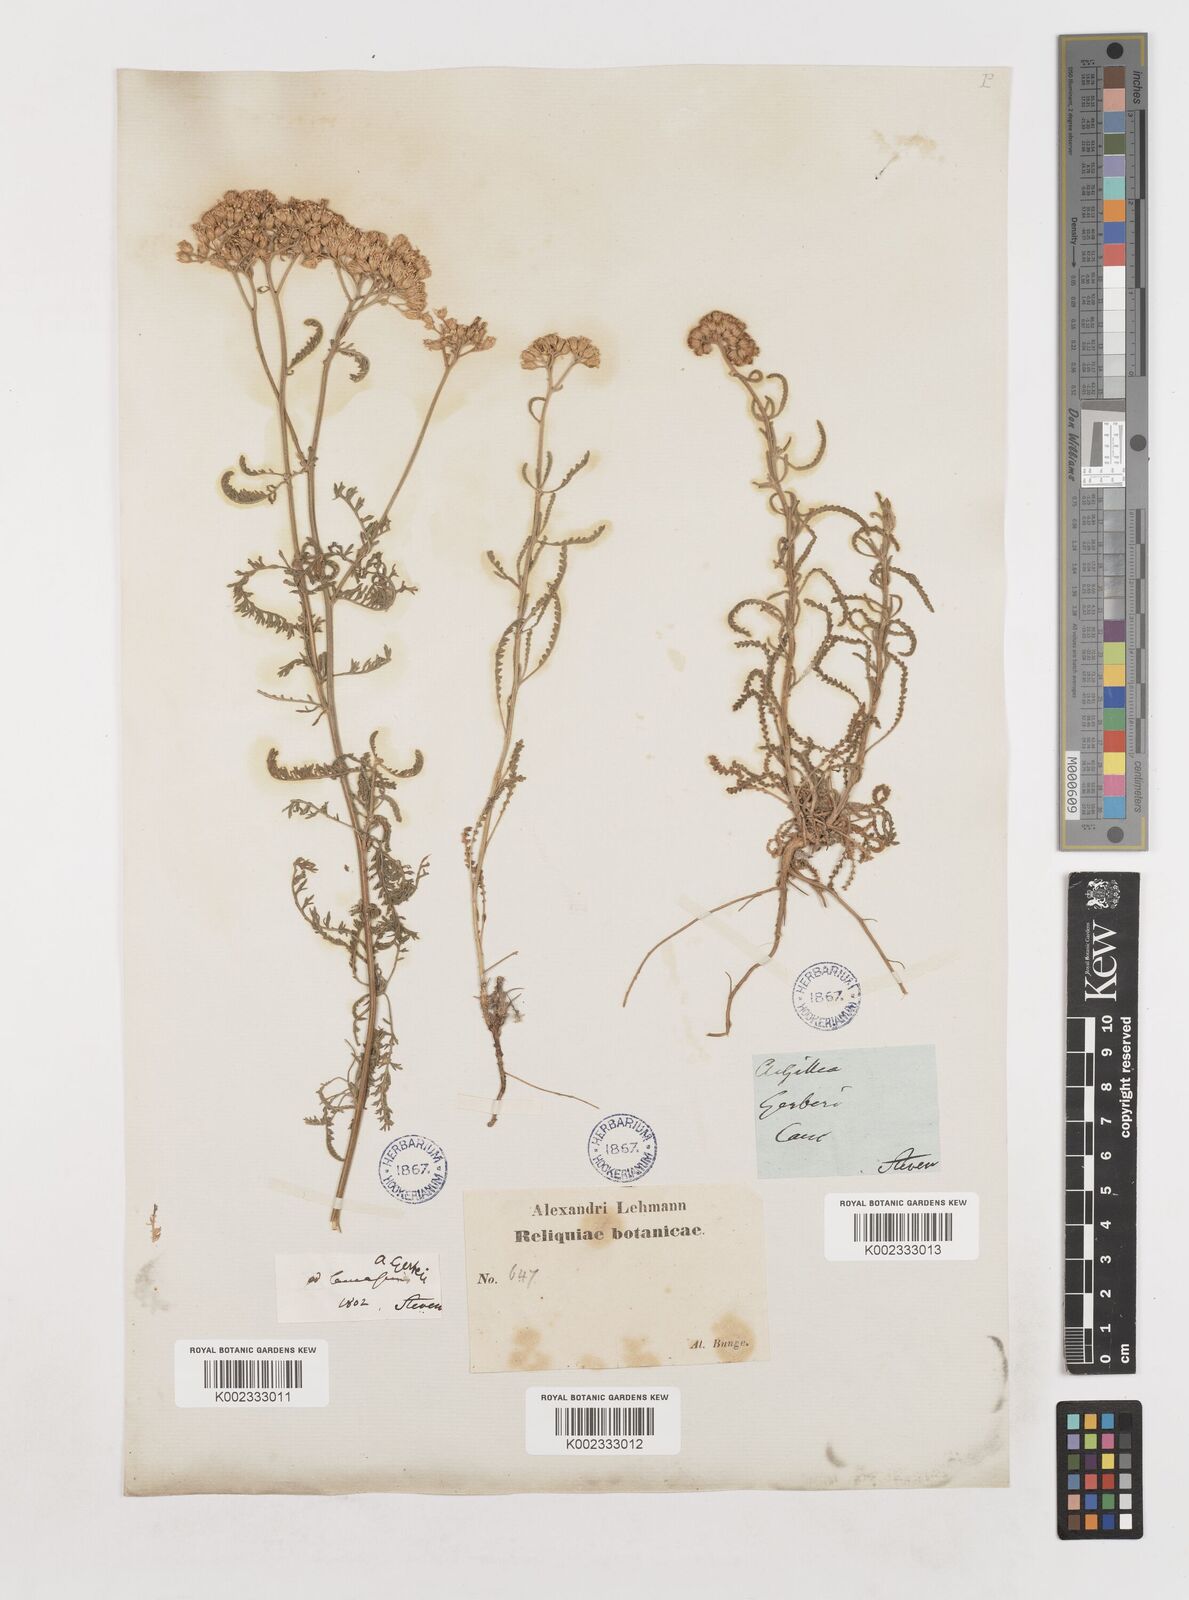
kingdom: Plantae
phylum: Tracheophyta
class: Magnoliopsida
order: Asterales
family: Asteraceae
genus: Achillea
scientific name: Achillea nobilis
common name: Noble yarrow
